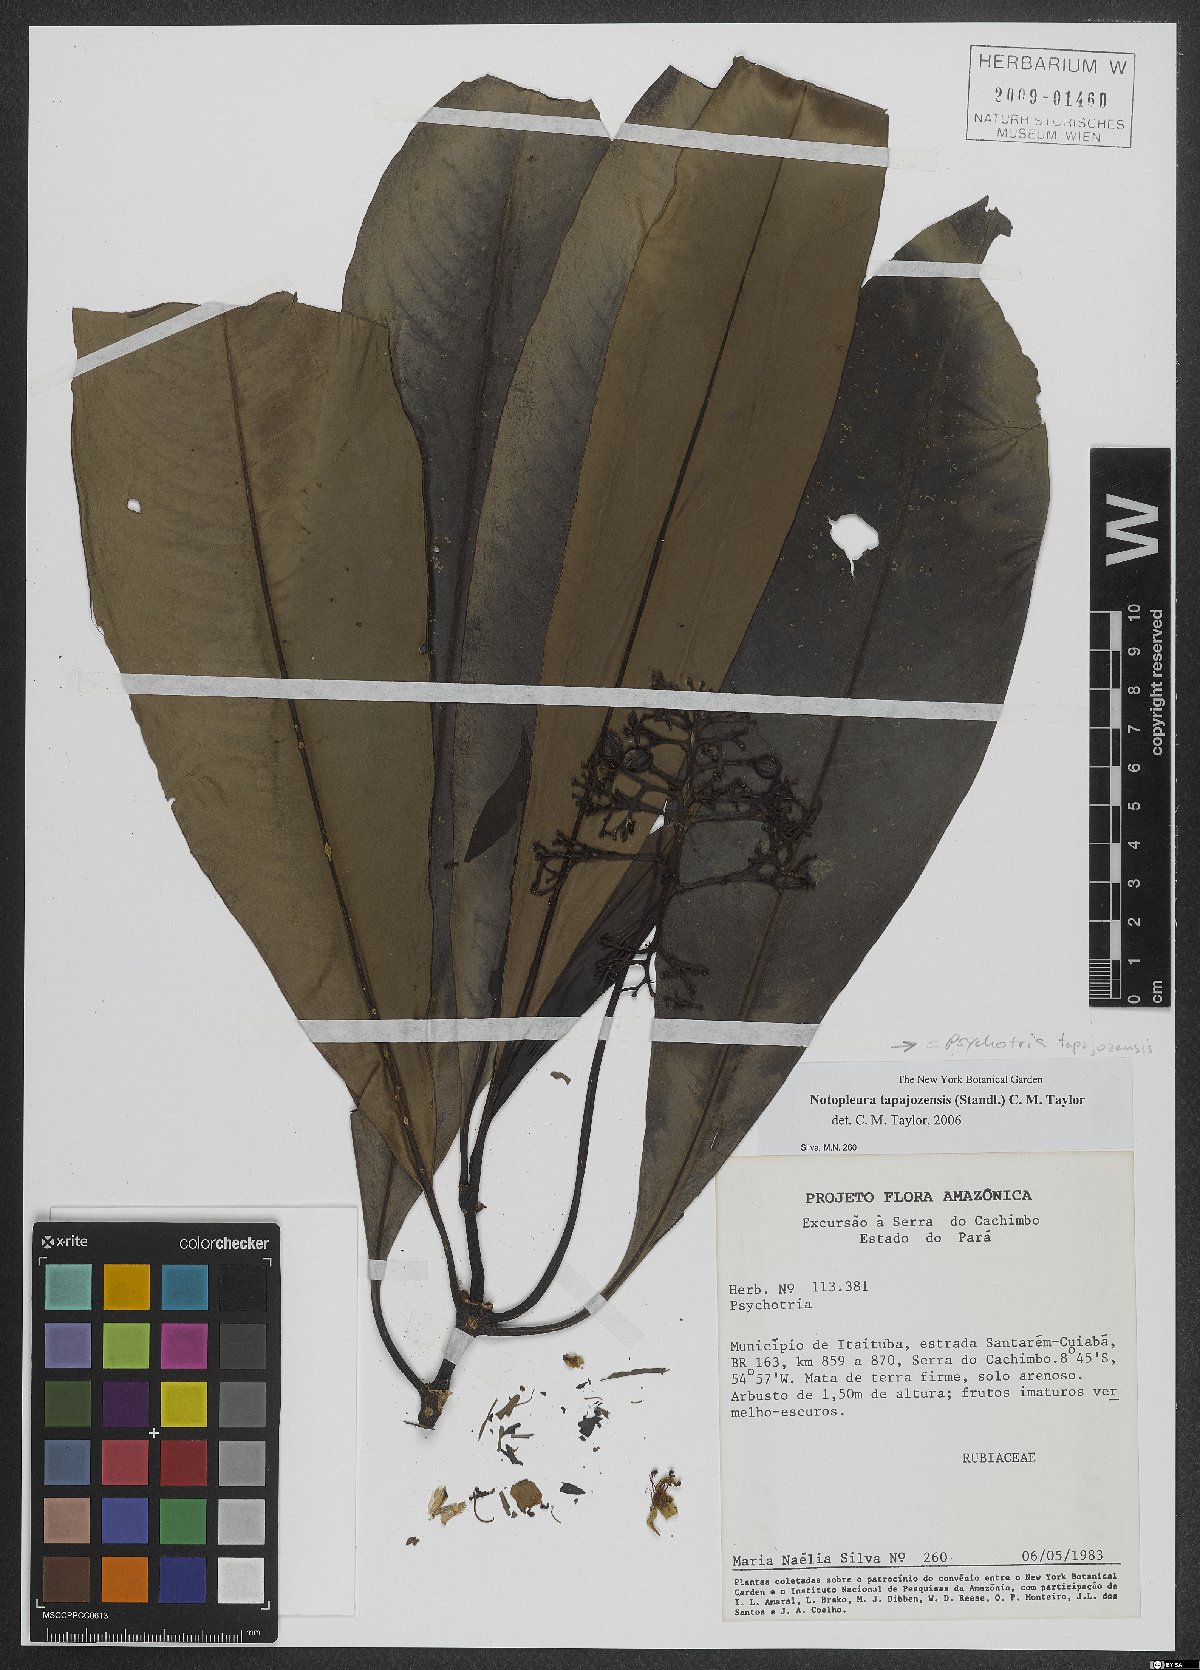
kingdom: Plantae
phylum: Tracheophyta
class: Magnoliopsida
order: Gentianales
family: Rubiaceae
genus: Notopleura
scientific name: Notopleura tapajozensis
